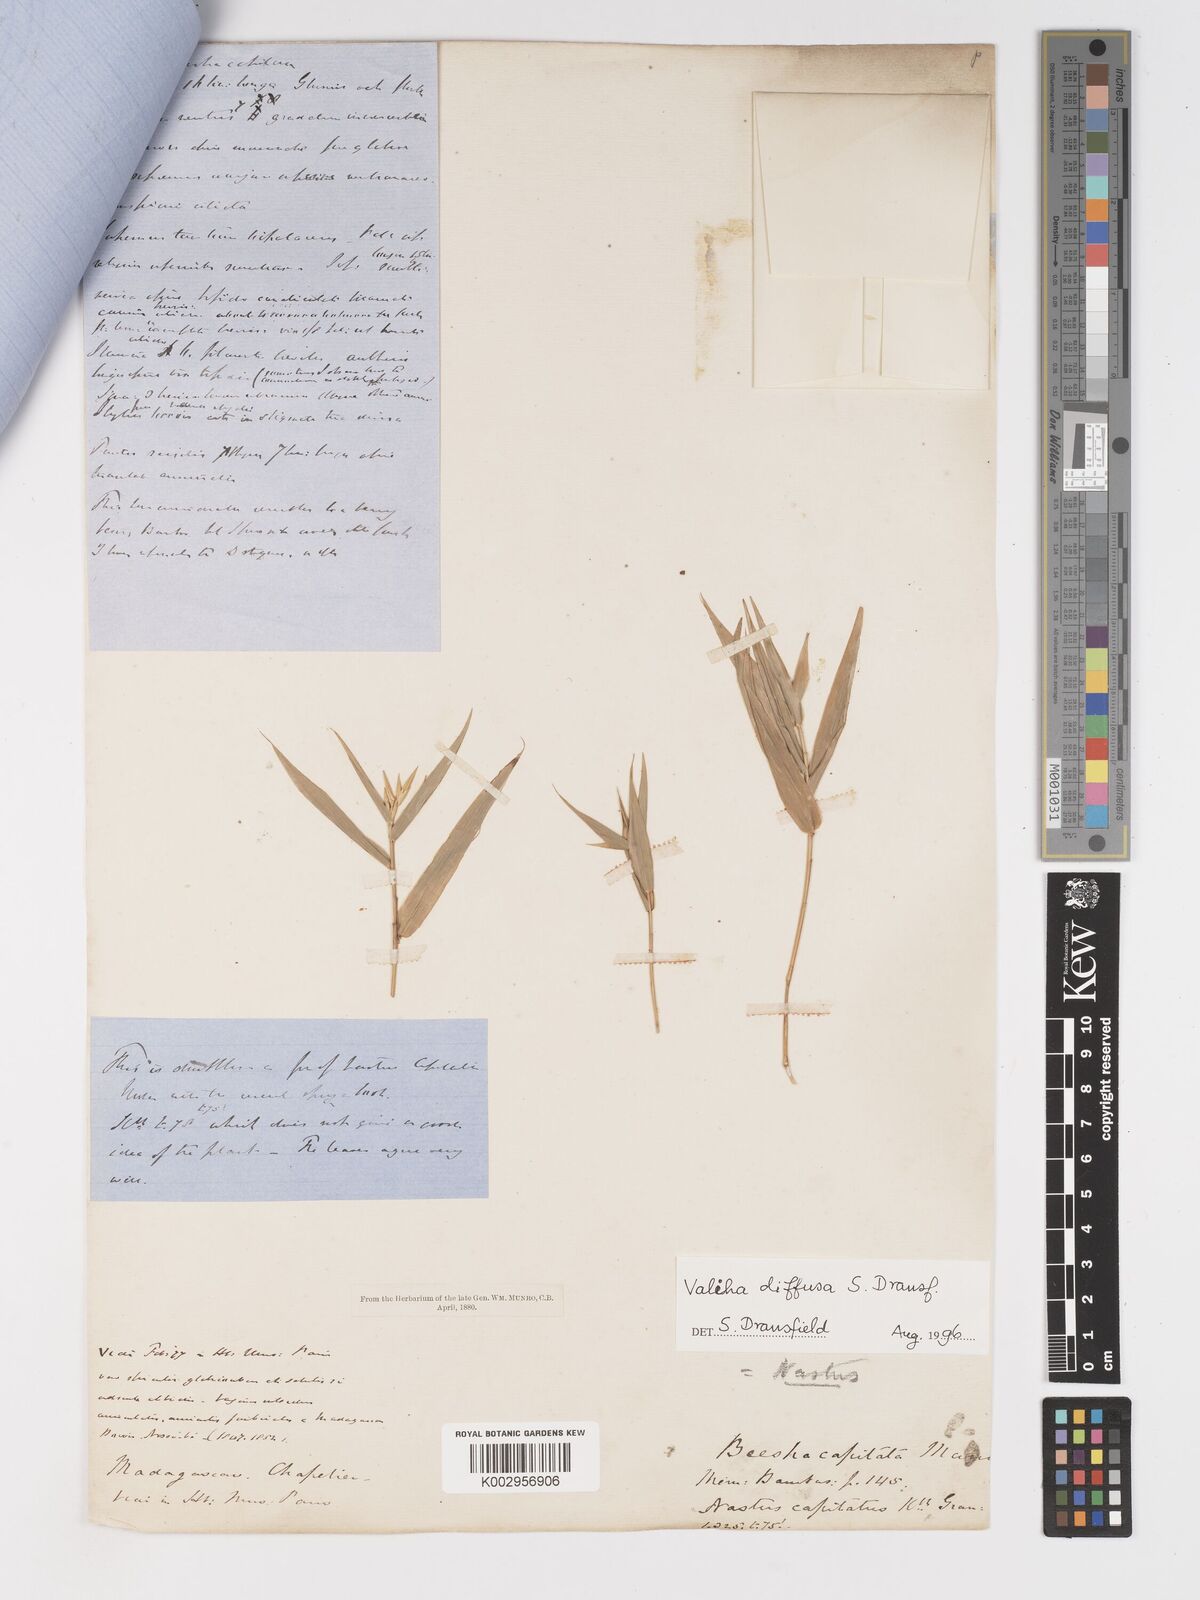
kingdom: Plantae
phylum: Tracheophyta
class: Liliopsida
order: Poales
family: Poaceae
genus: Valiha
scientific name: Valiha diffusa
